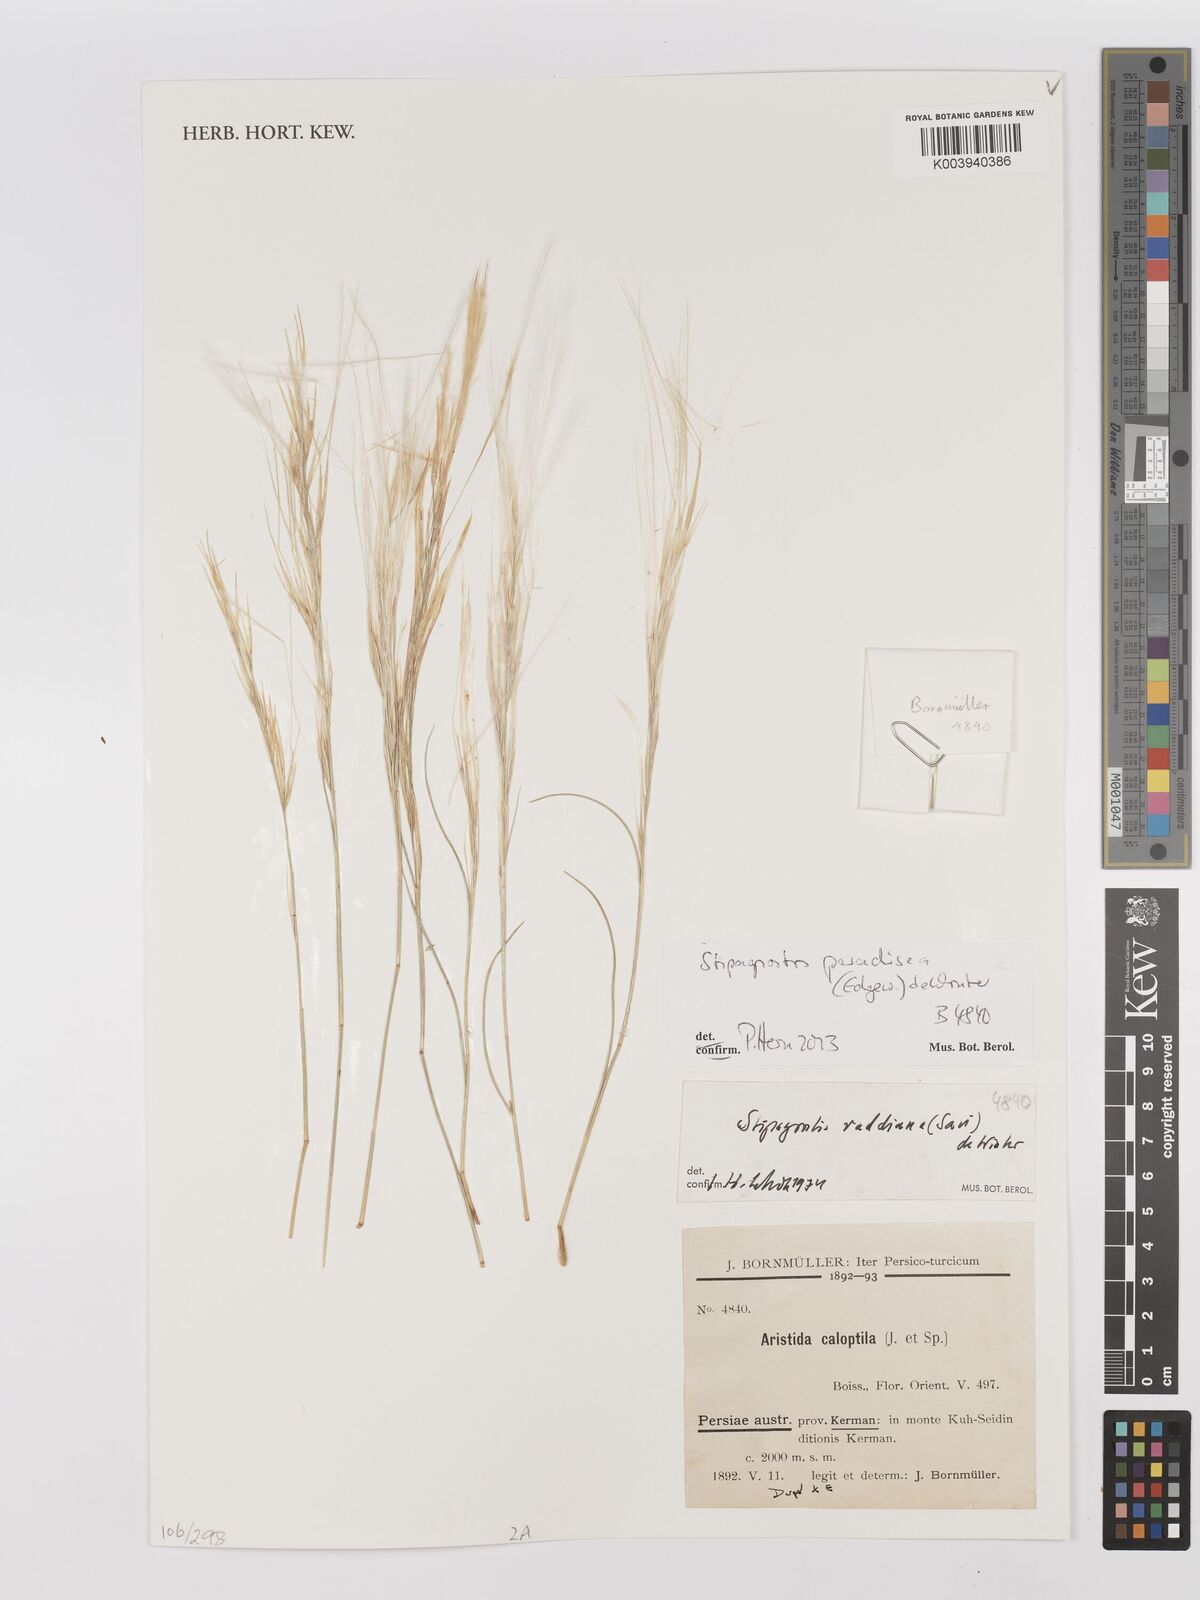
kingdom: Plantae
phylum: Tracheophyta
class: Liliopsida
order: Poales
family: Poaceae
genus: Stipagrostis
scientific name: Stipagrostis paradisea
